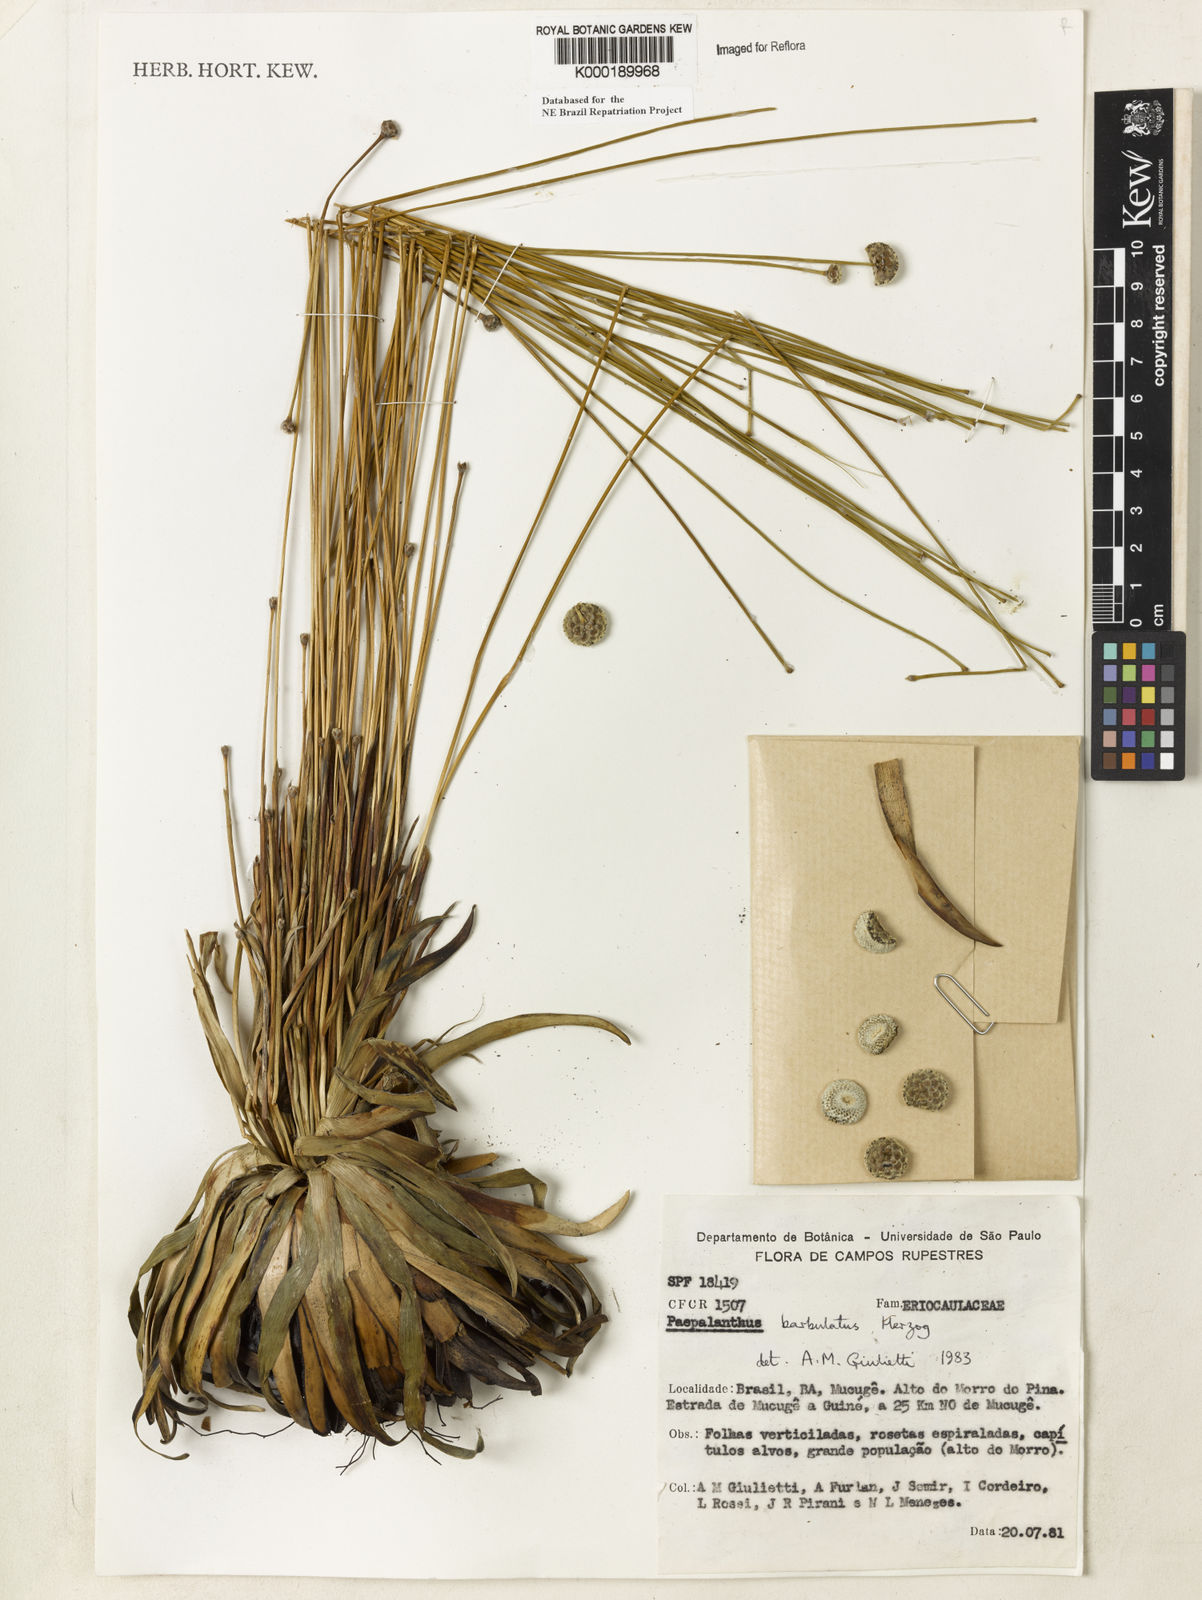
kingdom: Plantae
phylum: Tracheophyta
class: Liliopsida
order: Poales
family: Eriocaulaceae
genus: Paepalanthus
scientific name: Paepalanthus barbulatus
